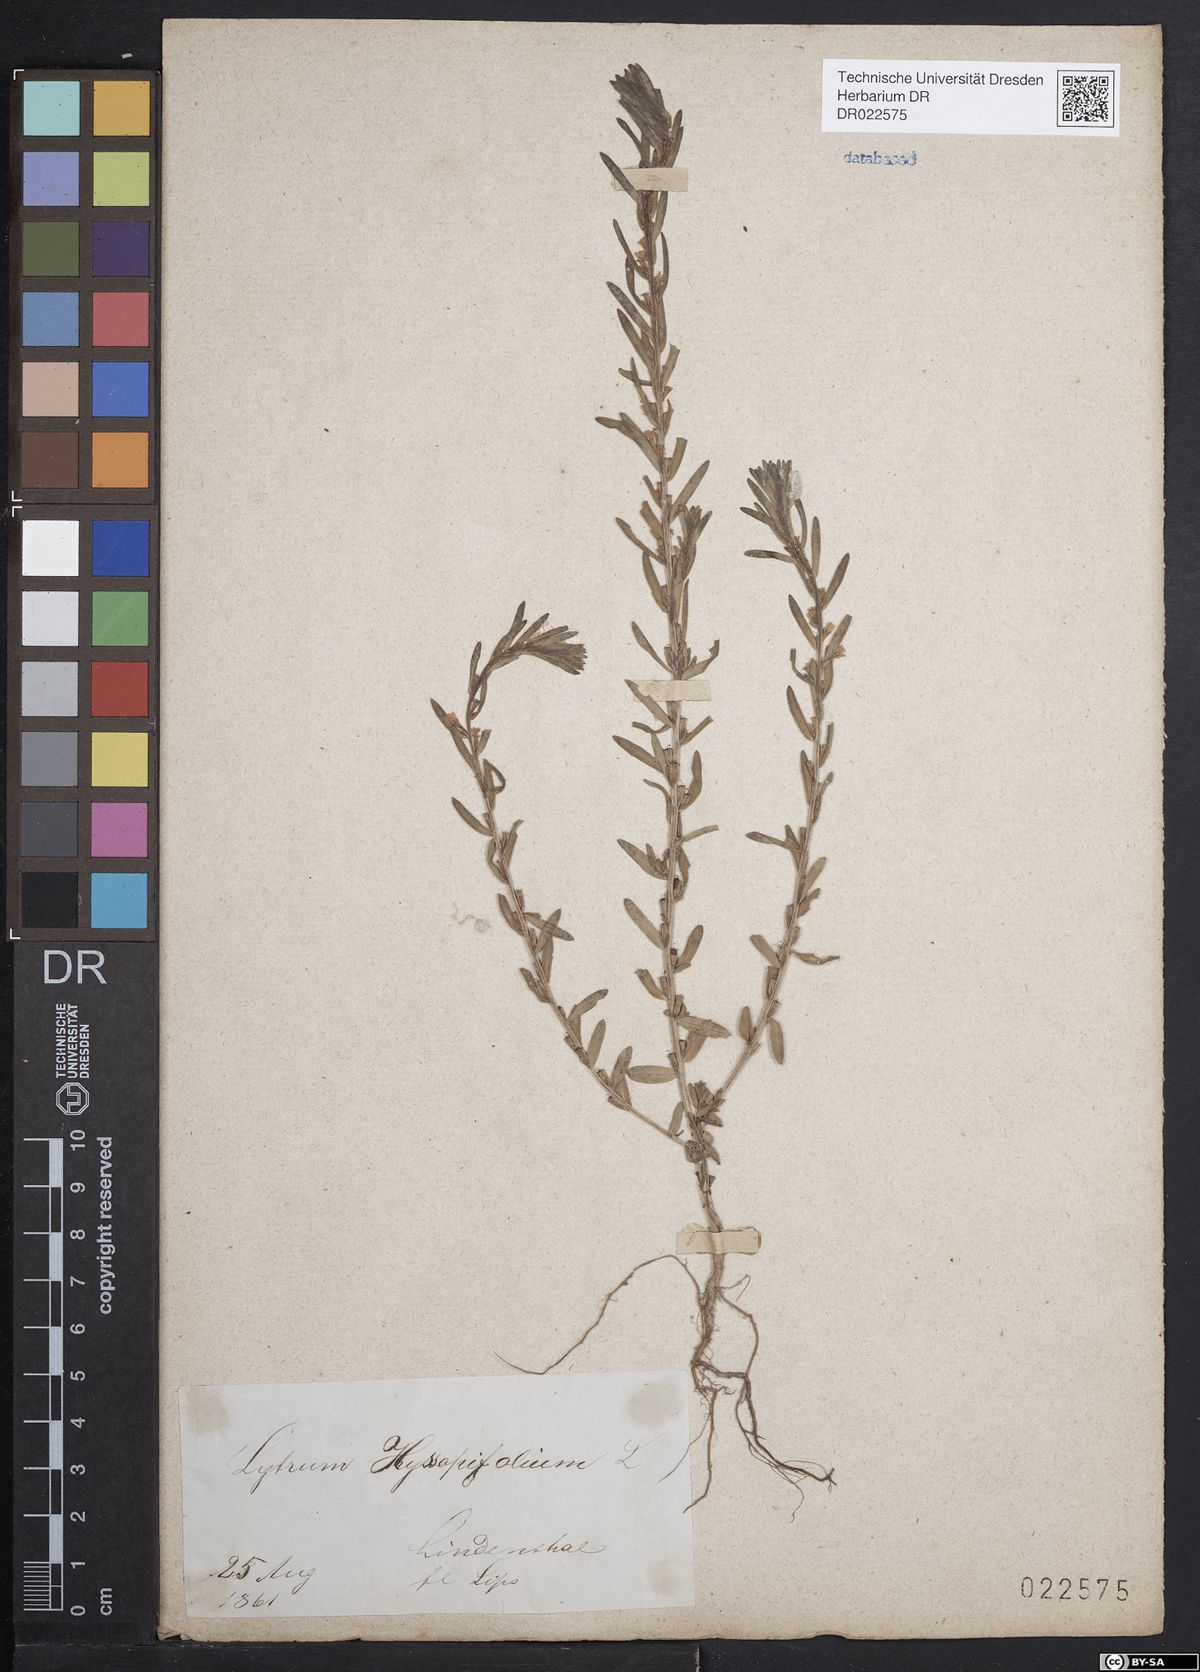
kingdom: Plantae
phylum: Tracheophyta
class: Magnoliopsida
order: Myrtales
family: Lythraceae
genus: Lythrum
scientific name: Lythrum hyssopifolia
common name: Grass-poly
